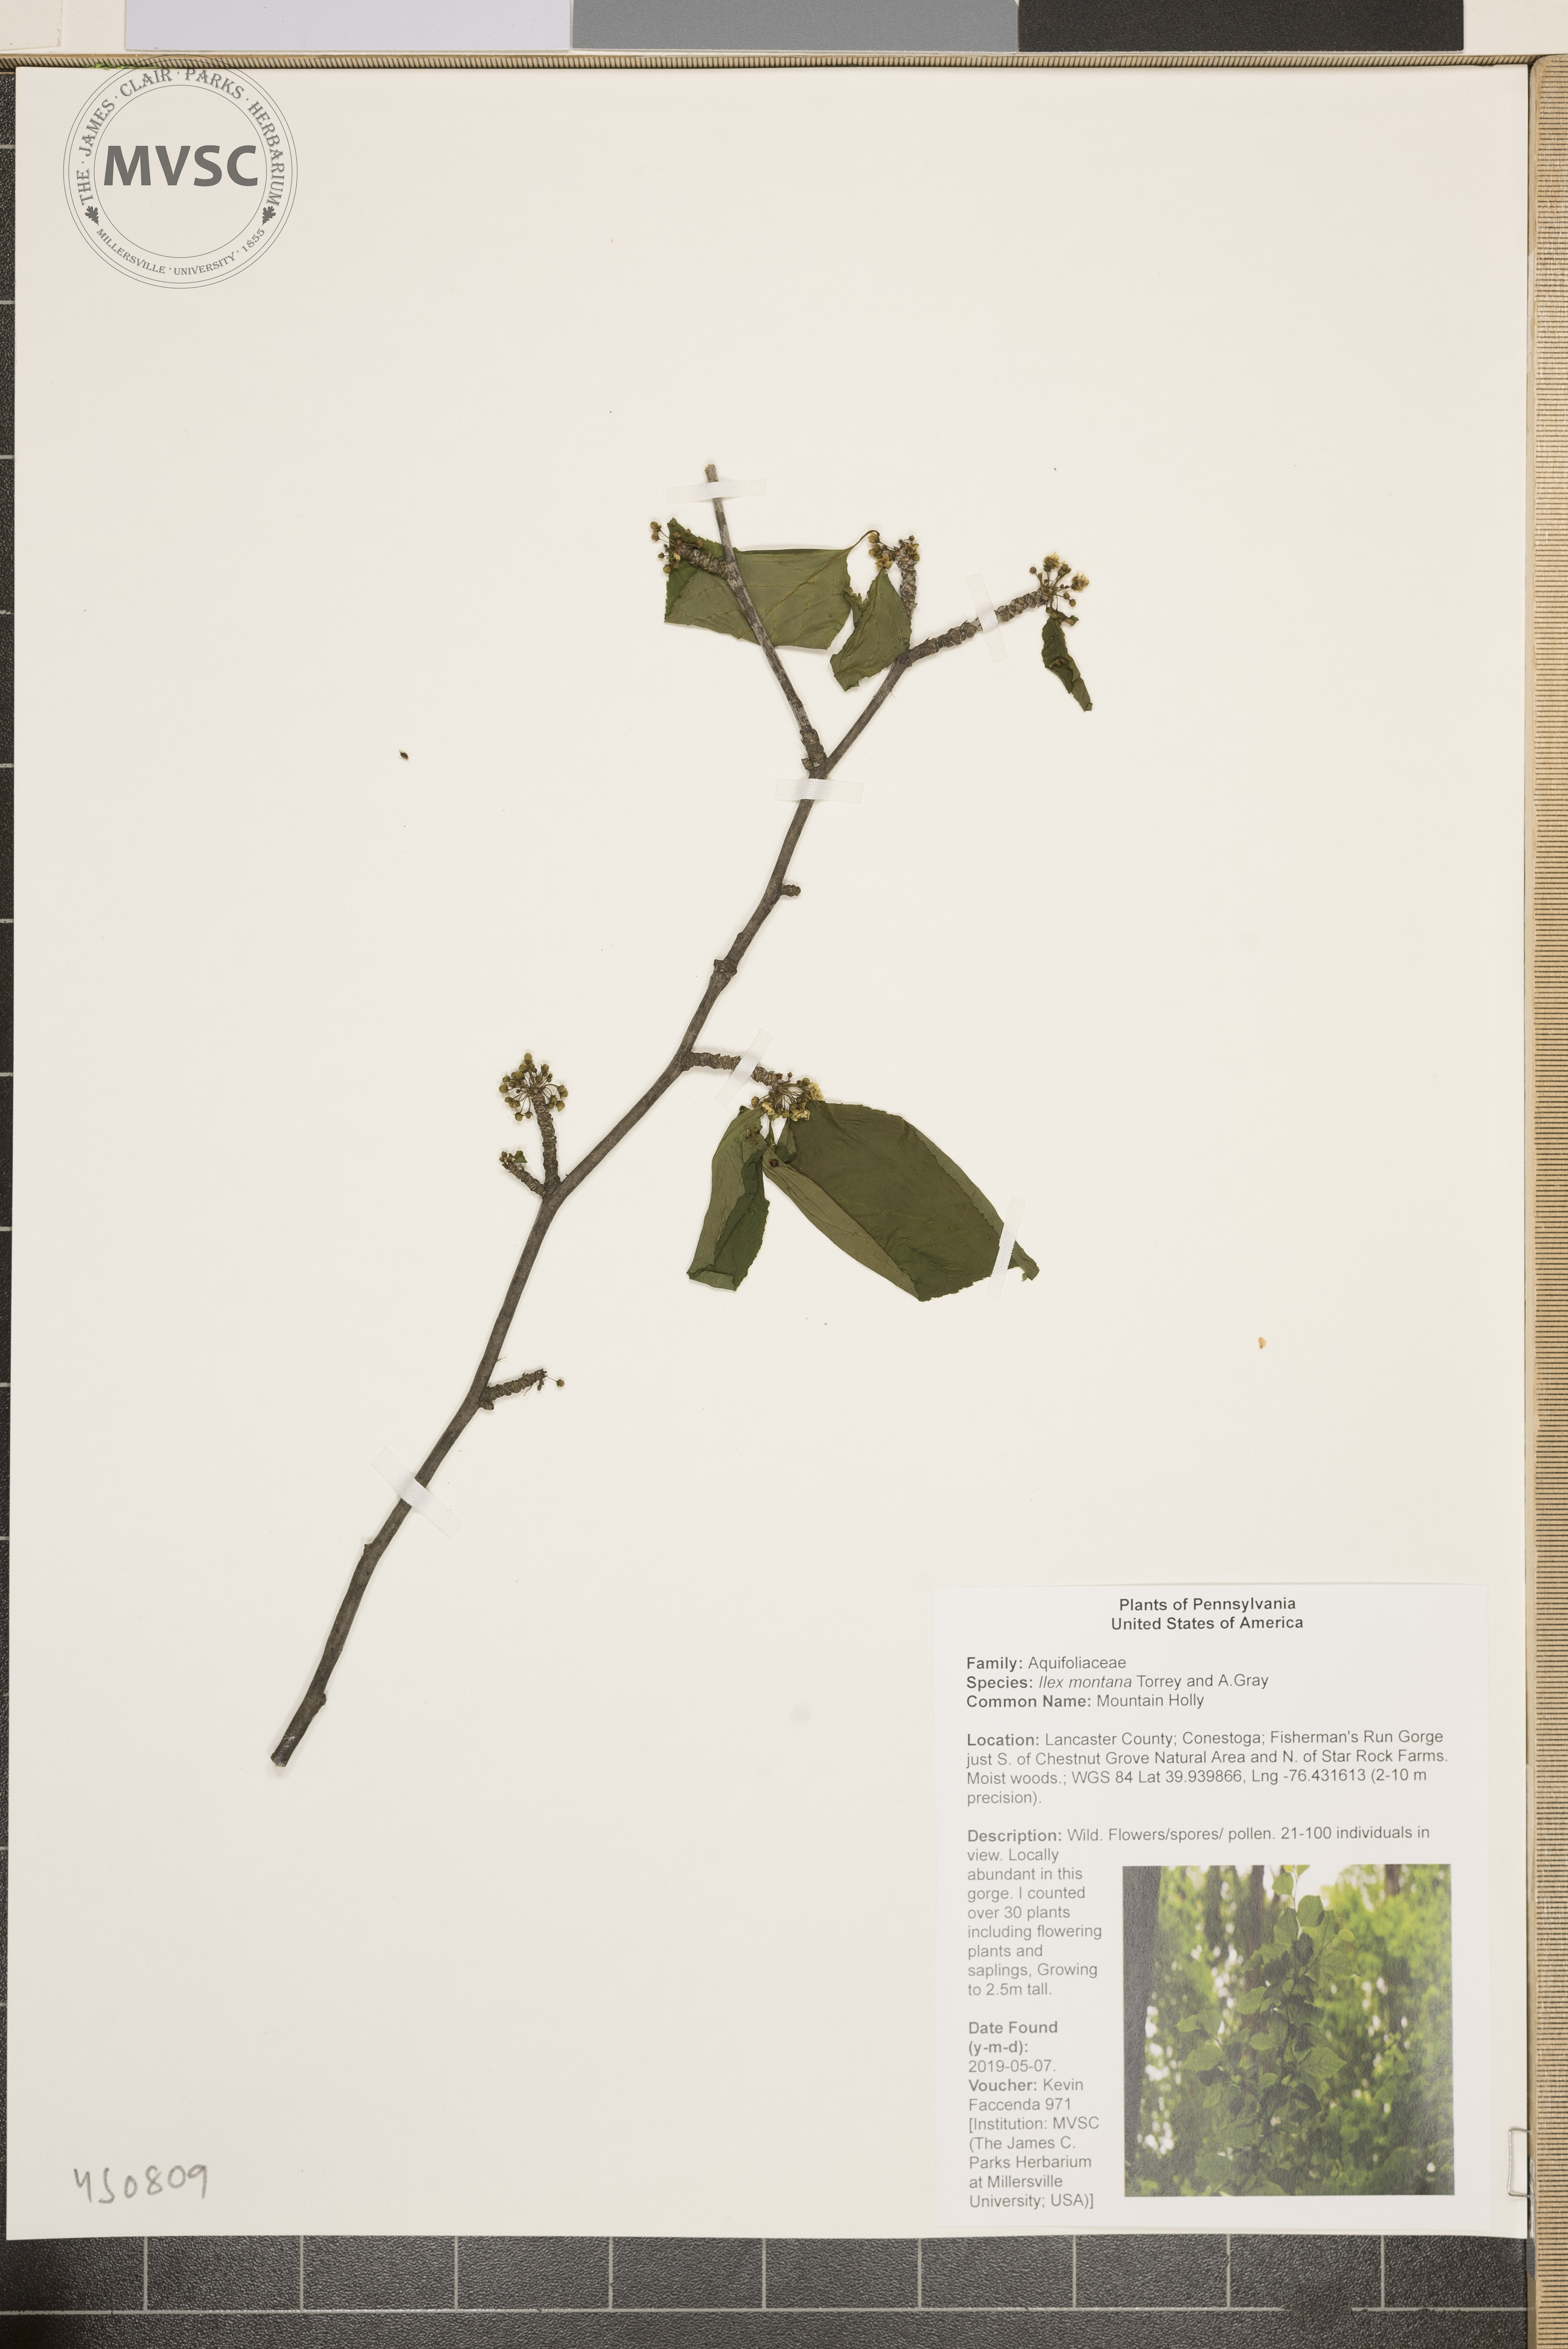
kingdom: Plantae
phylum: Tracheophyta
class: Magnoliopsida
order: Aquifoliales
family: Aquifoliaceae
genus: Ilex
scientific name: Ilex montana
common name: Mountain Holly
